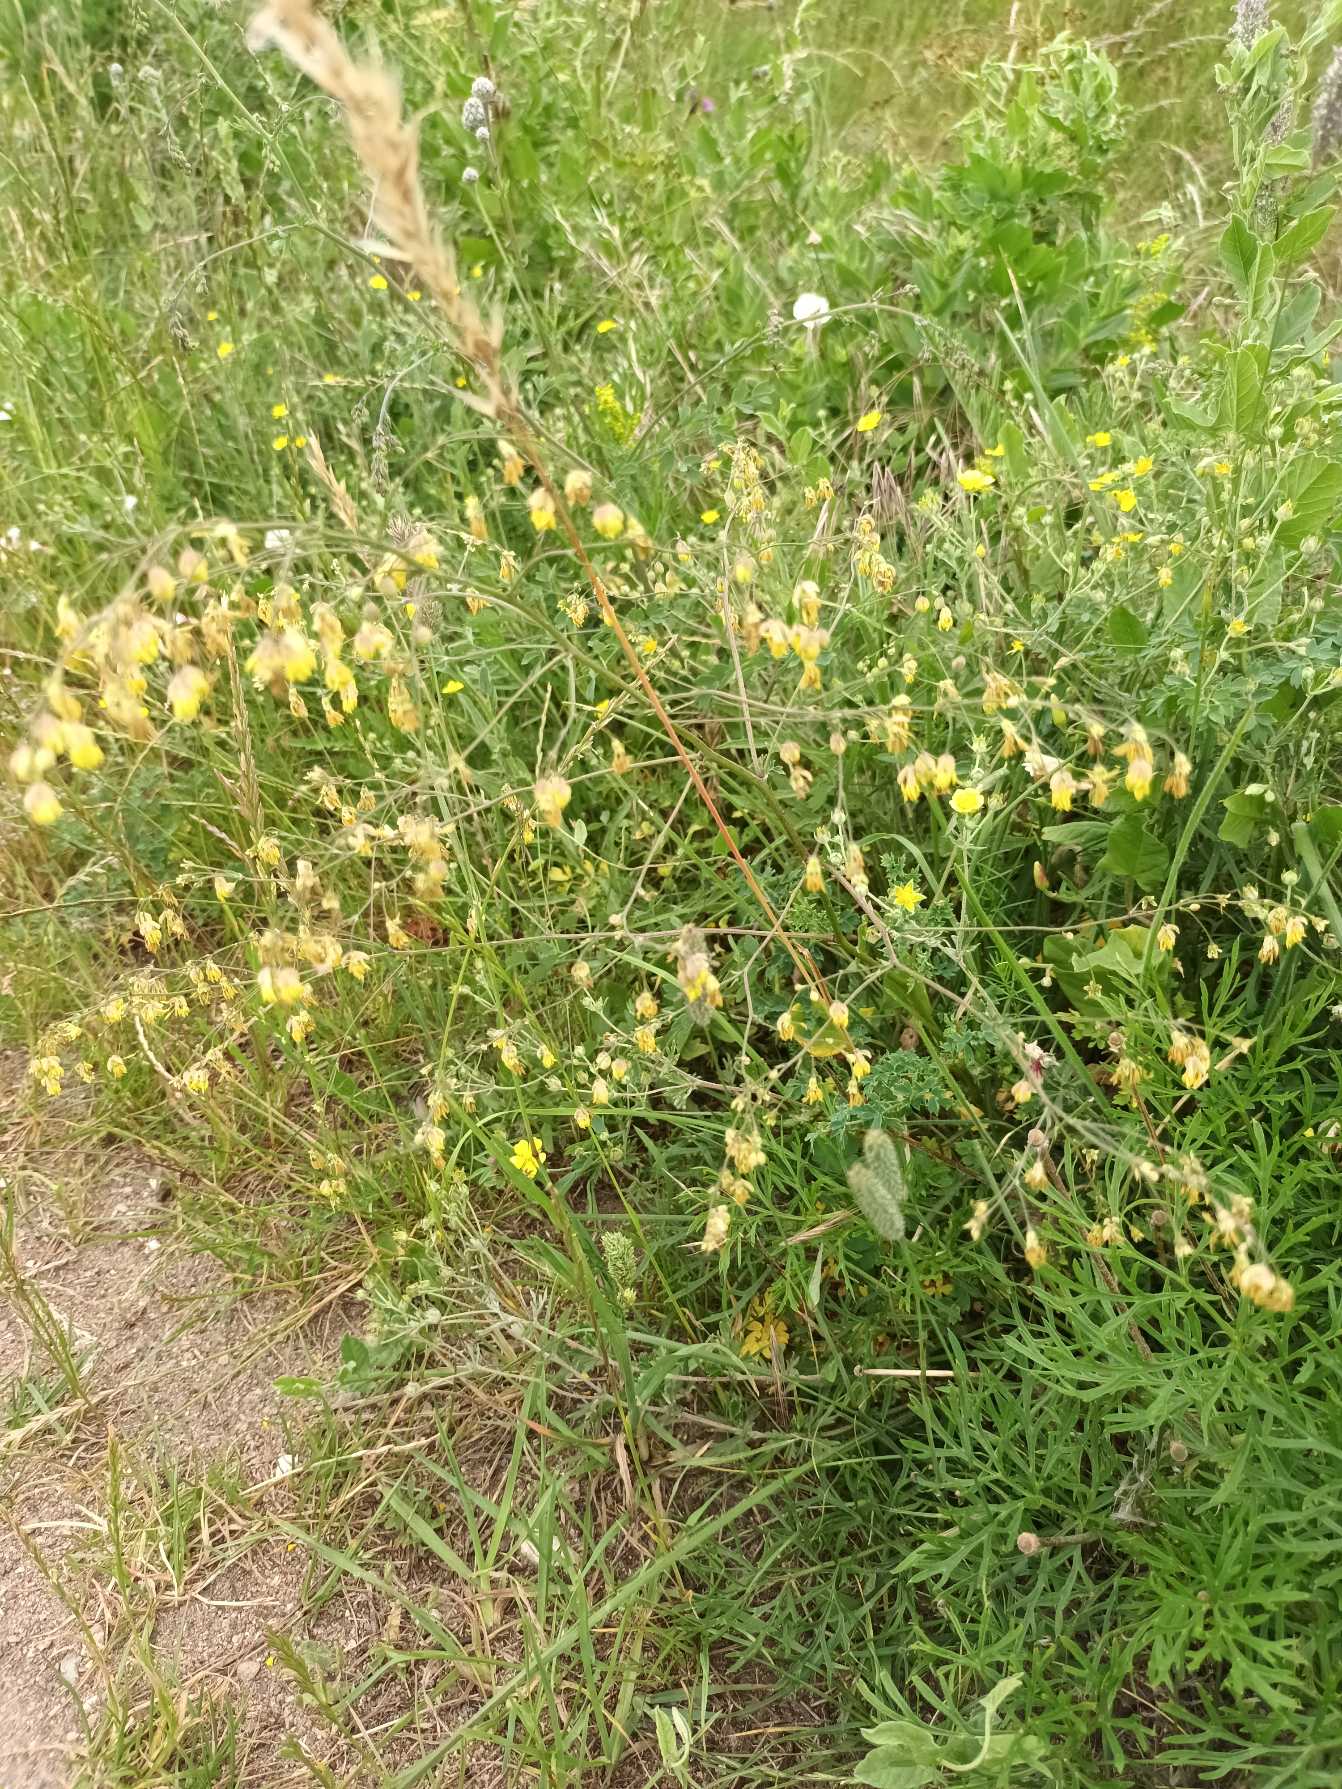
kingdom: Plantae
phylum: Tracheophyta
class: Magnoliopsida
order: Ranunculales
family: Ranunculaceae
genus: Thalictrum
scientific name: Thalictrum minus
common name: Bugtet frøstjerne
